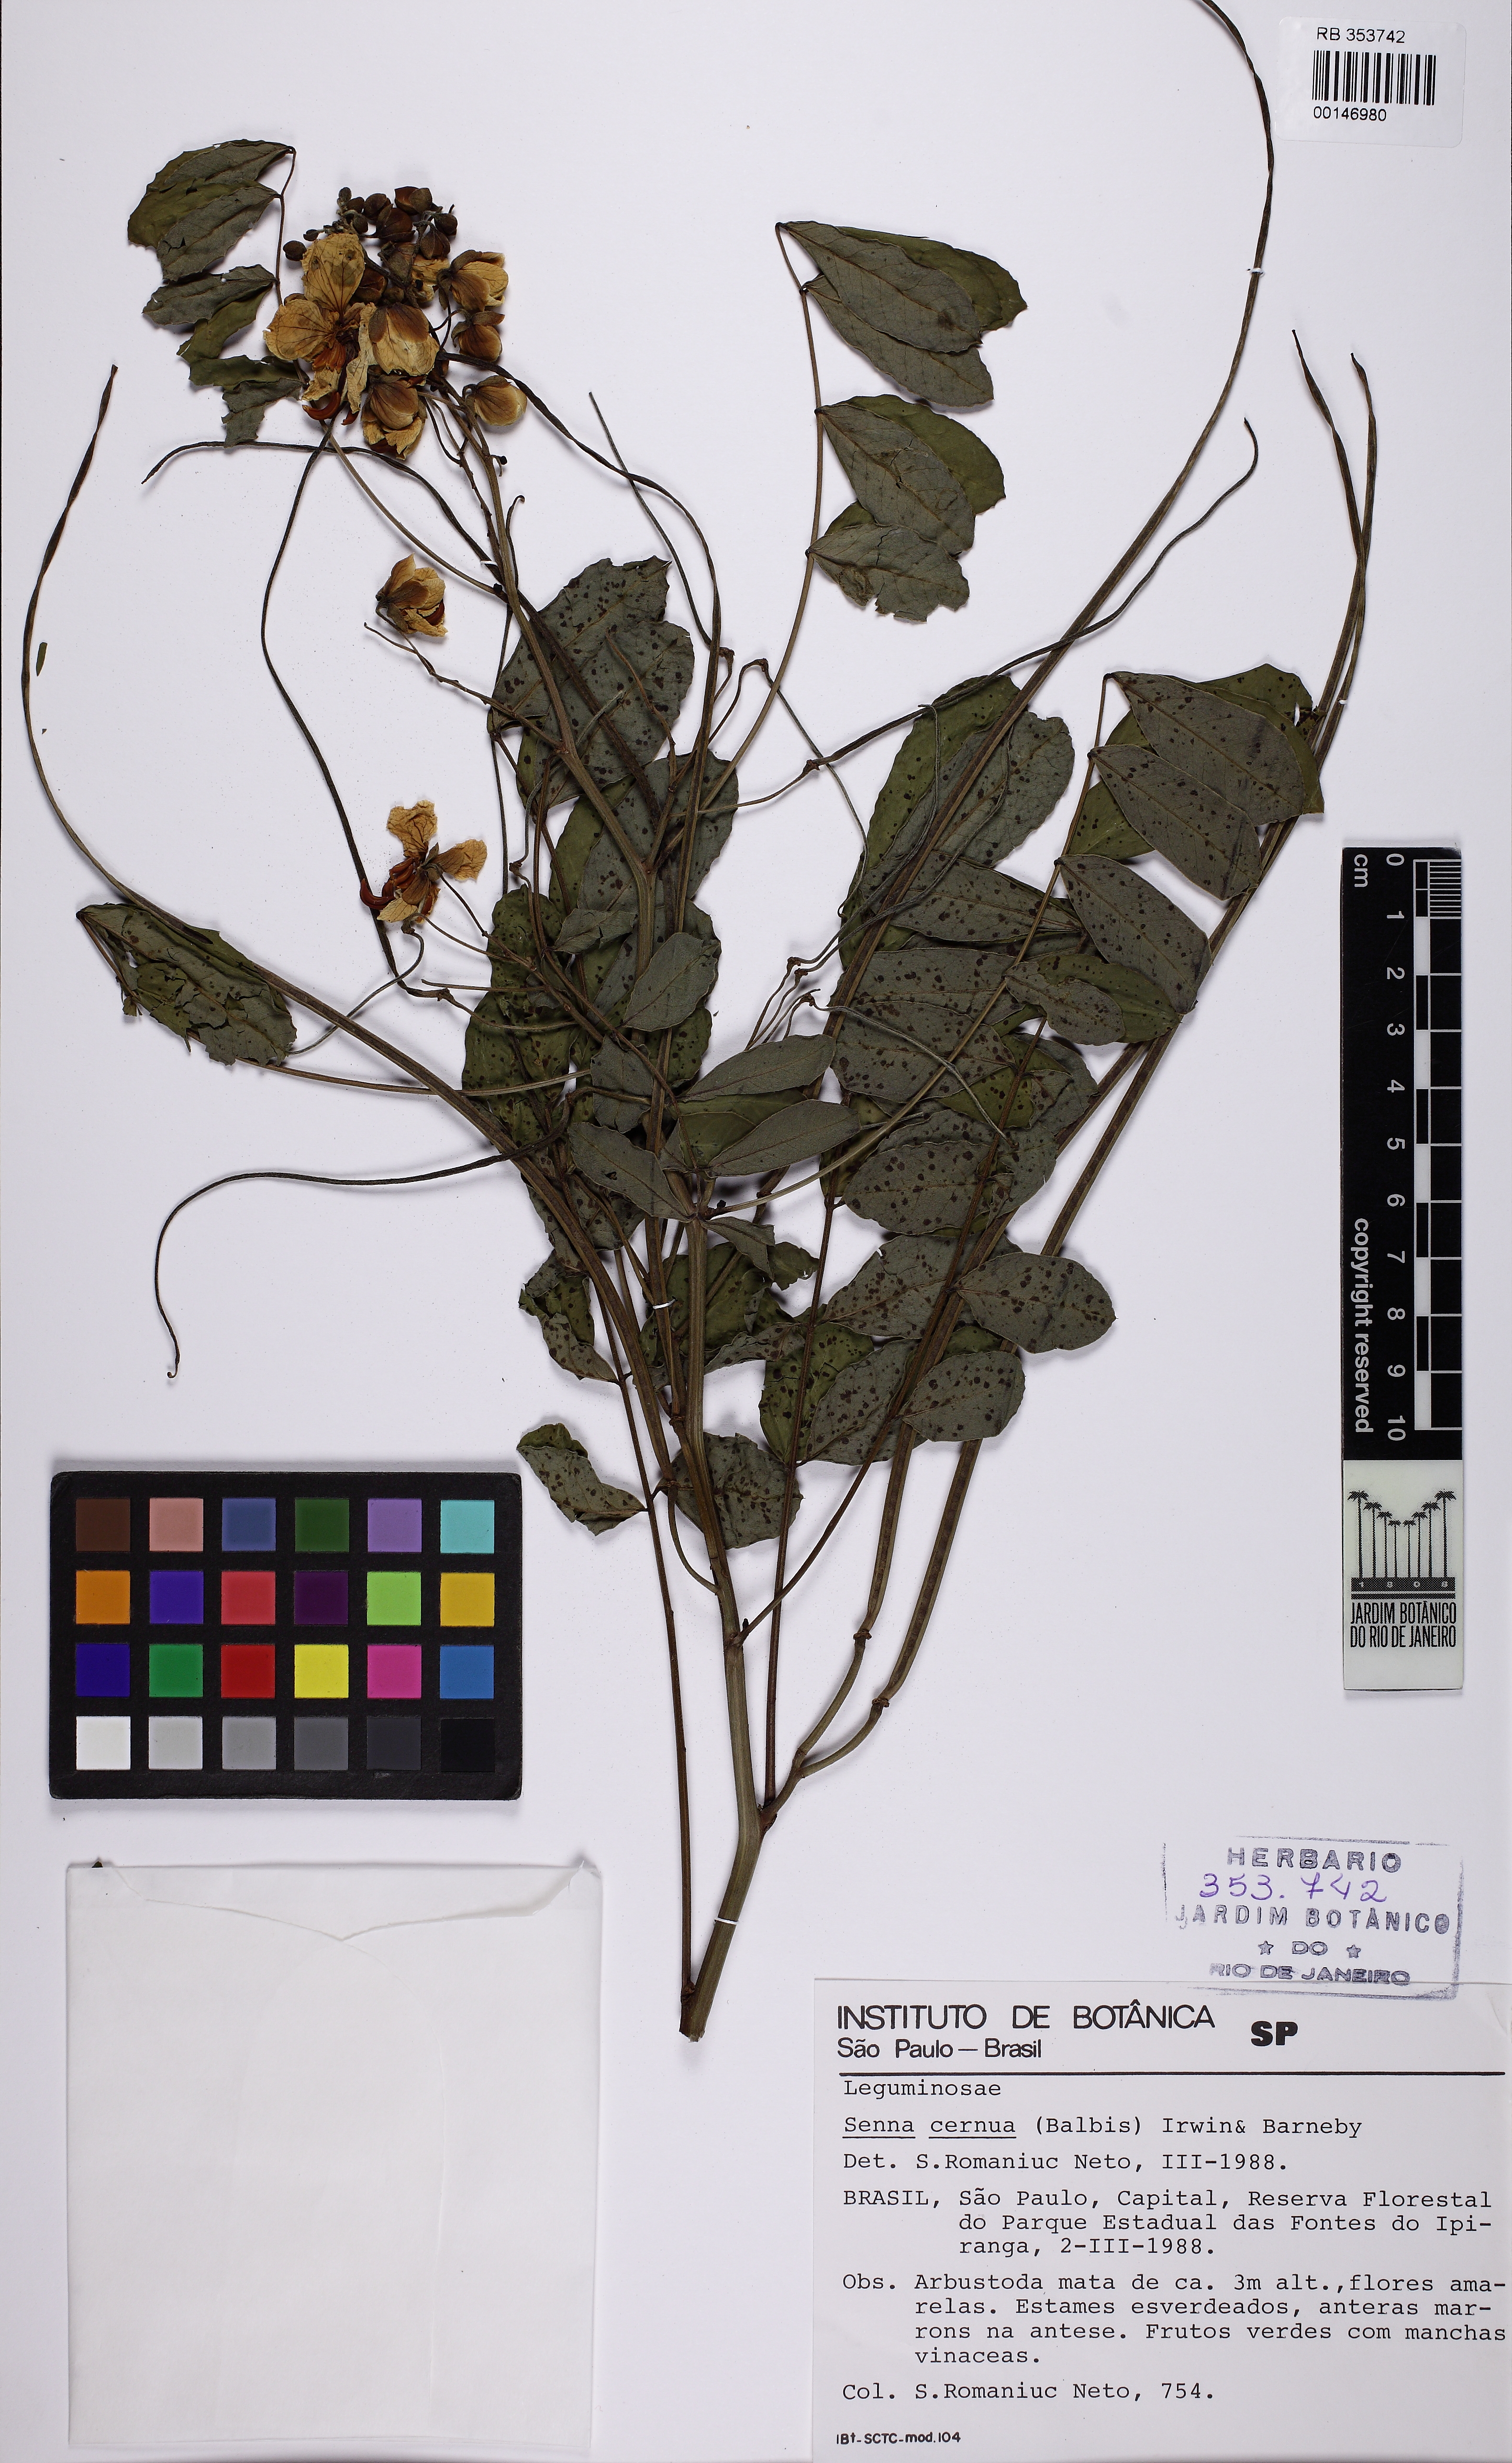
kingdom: Plantae
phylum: Tracheophyta
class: Magnoliopsida
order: Fabales
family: Fabaceae
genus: Senna
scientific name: Senna cernua
